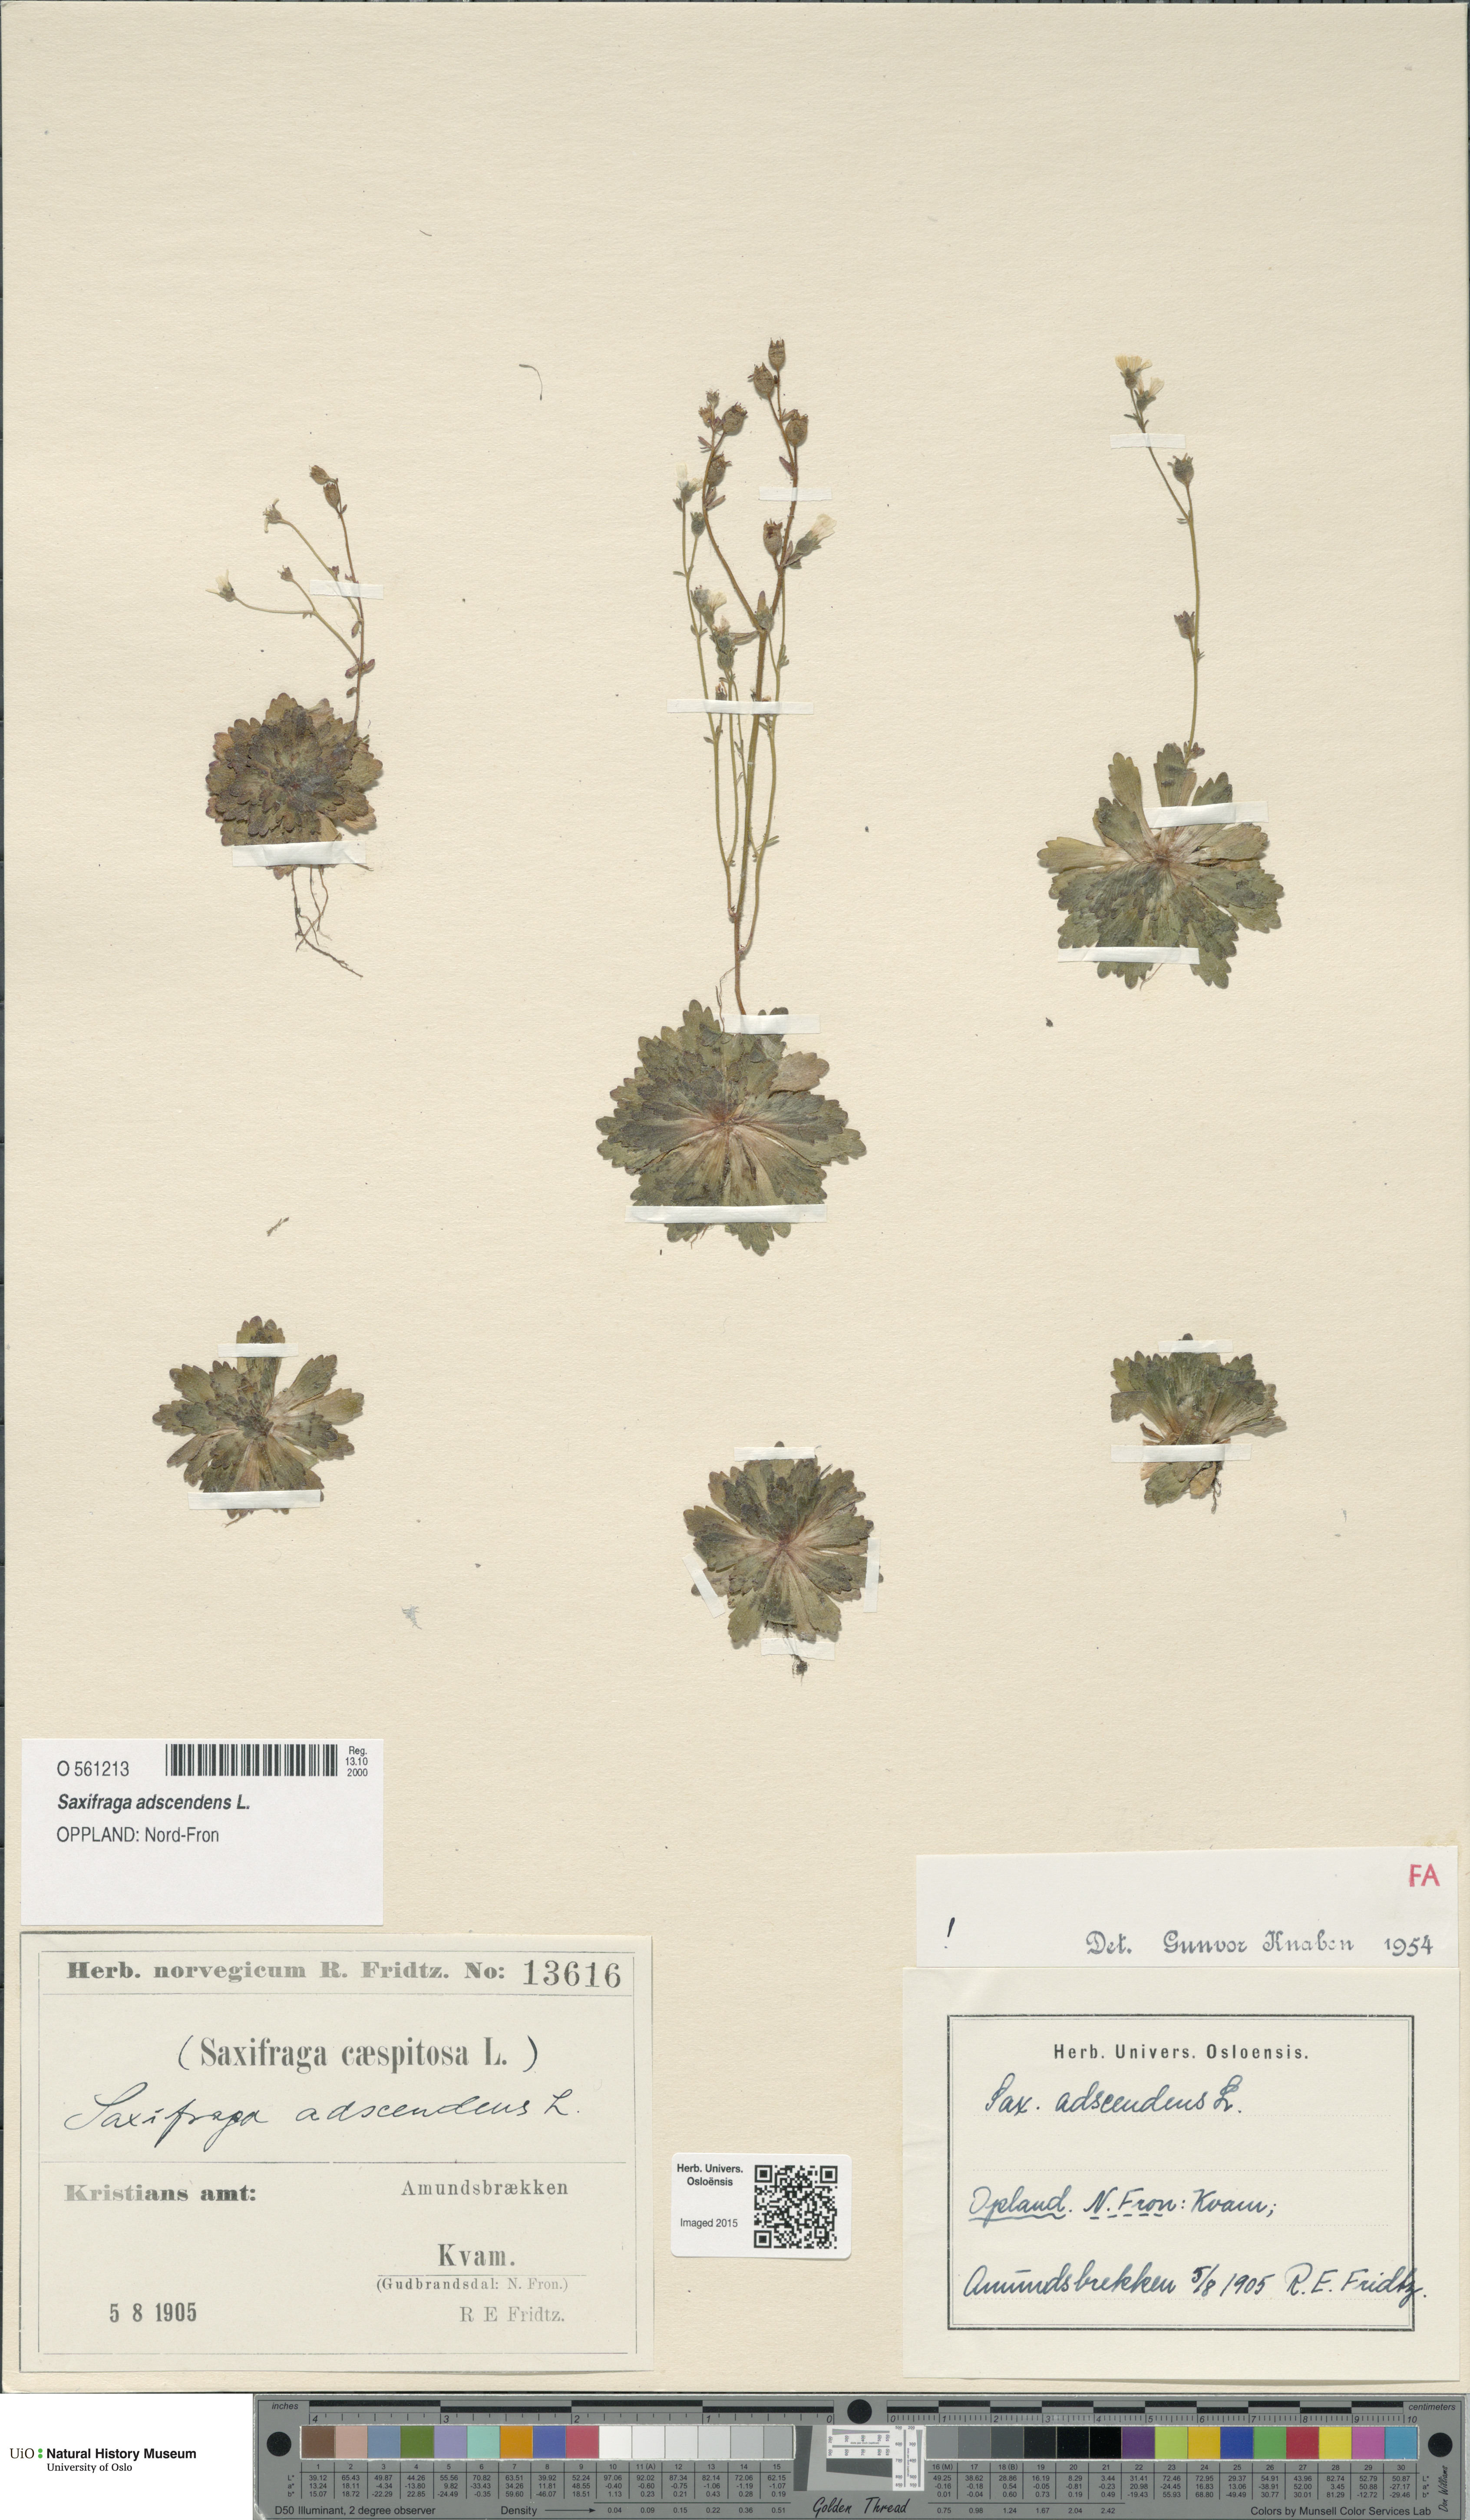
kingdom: Plantae
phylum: Tracheophyta
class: Magnoliopsida
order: Saxifragales
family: Saxifragaceae
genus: Saxifraga
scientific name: Saxifraga adscendens
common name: Ascending saxifrage
